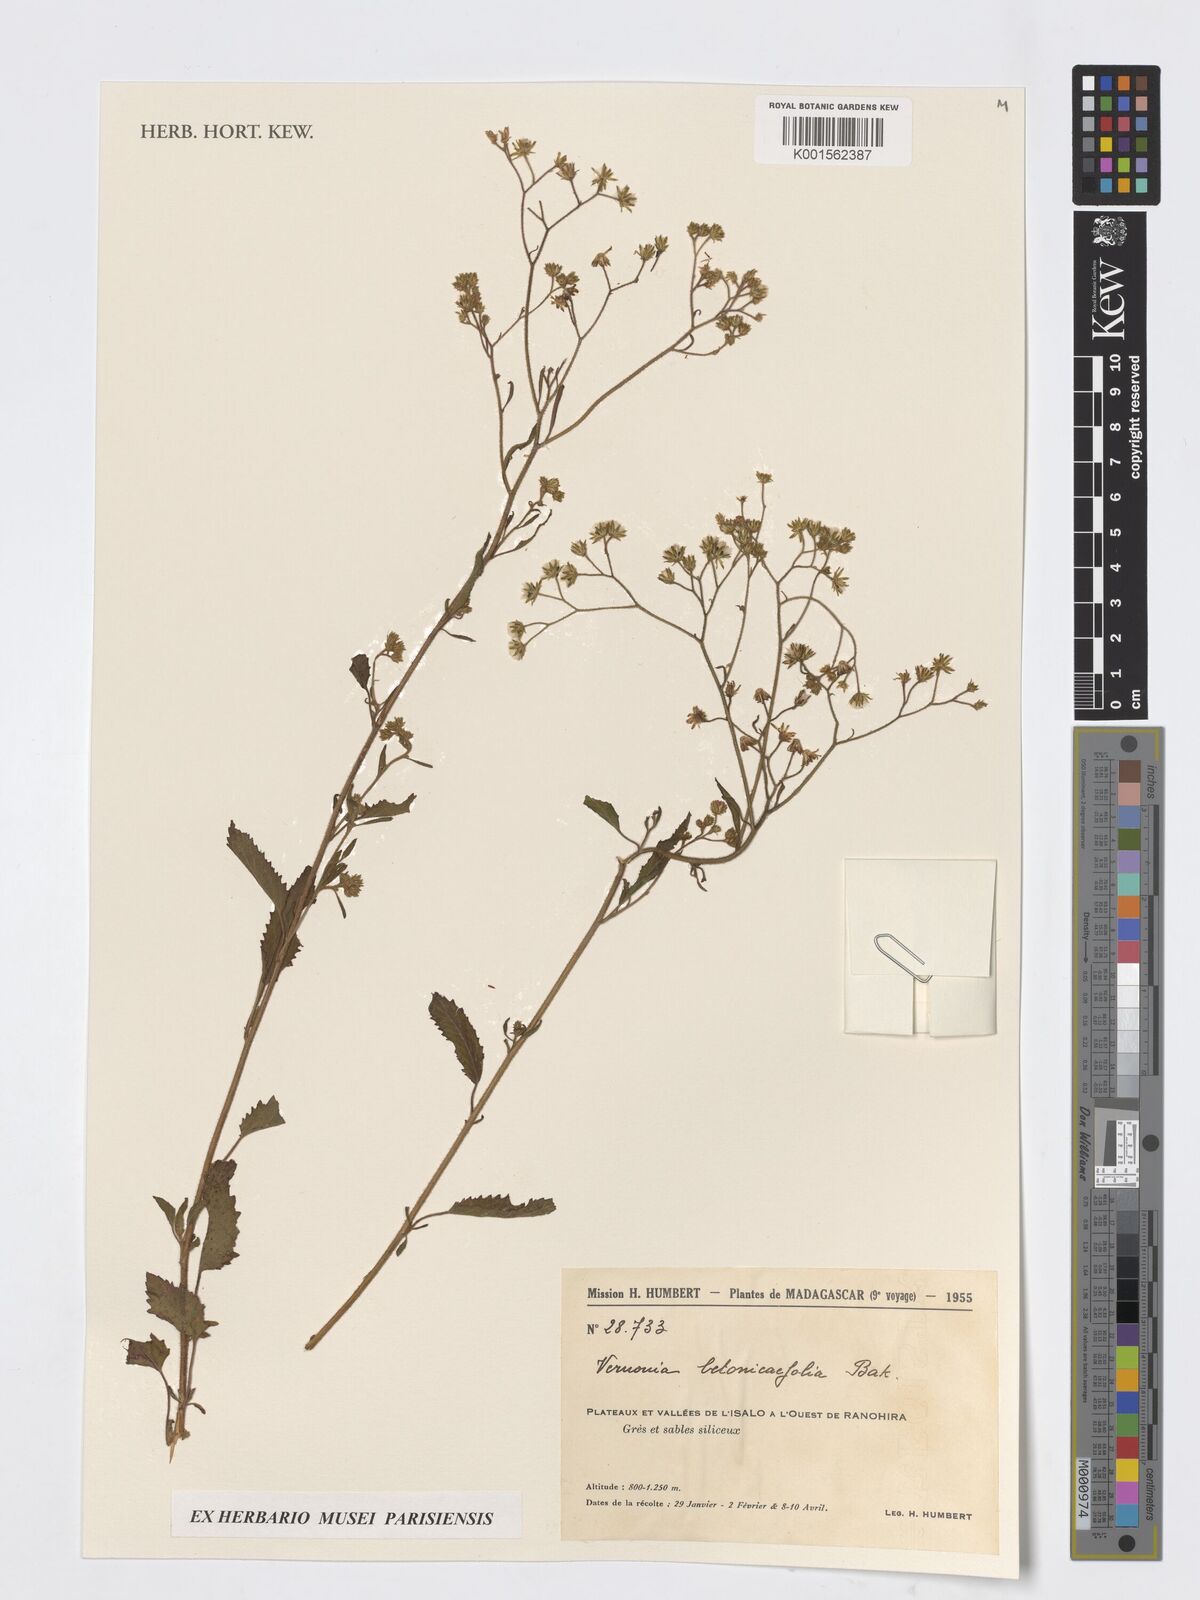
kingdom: Plantae
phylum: Tracheophyta
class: Magnoliopsida
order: Asterales
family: Asteraceae
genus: Vernonia
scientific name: Vernonia
